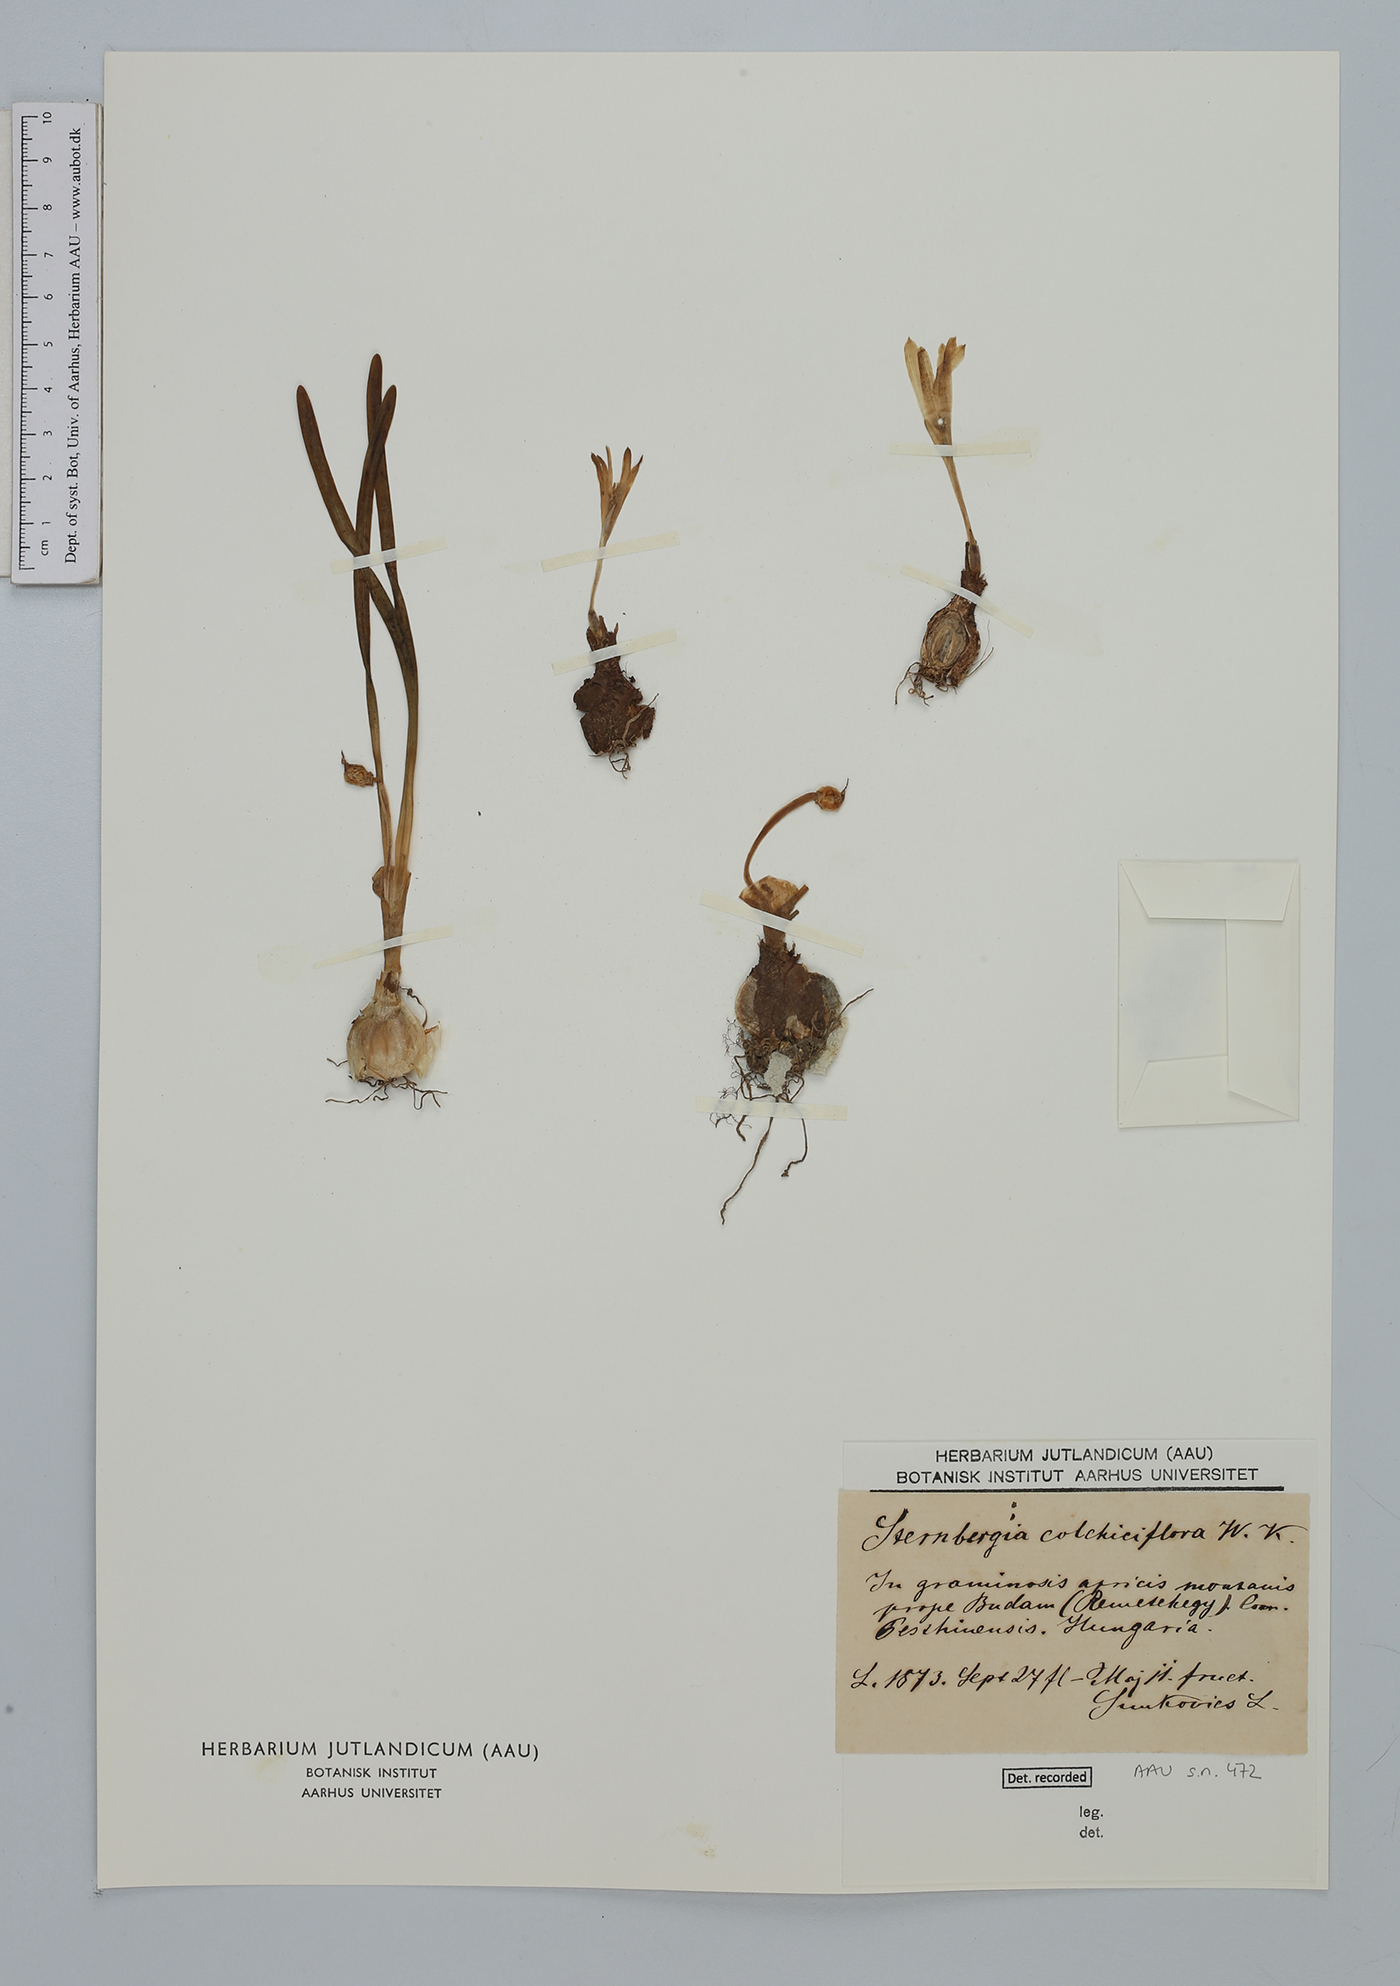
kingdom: Plantae
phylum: Tracheophyta
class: Liliopsida
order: Asparagales
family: Amaryllidaceae
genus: Sternbergia
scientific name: Sternbergia colchiciflora
